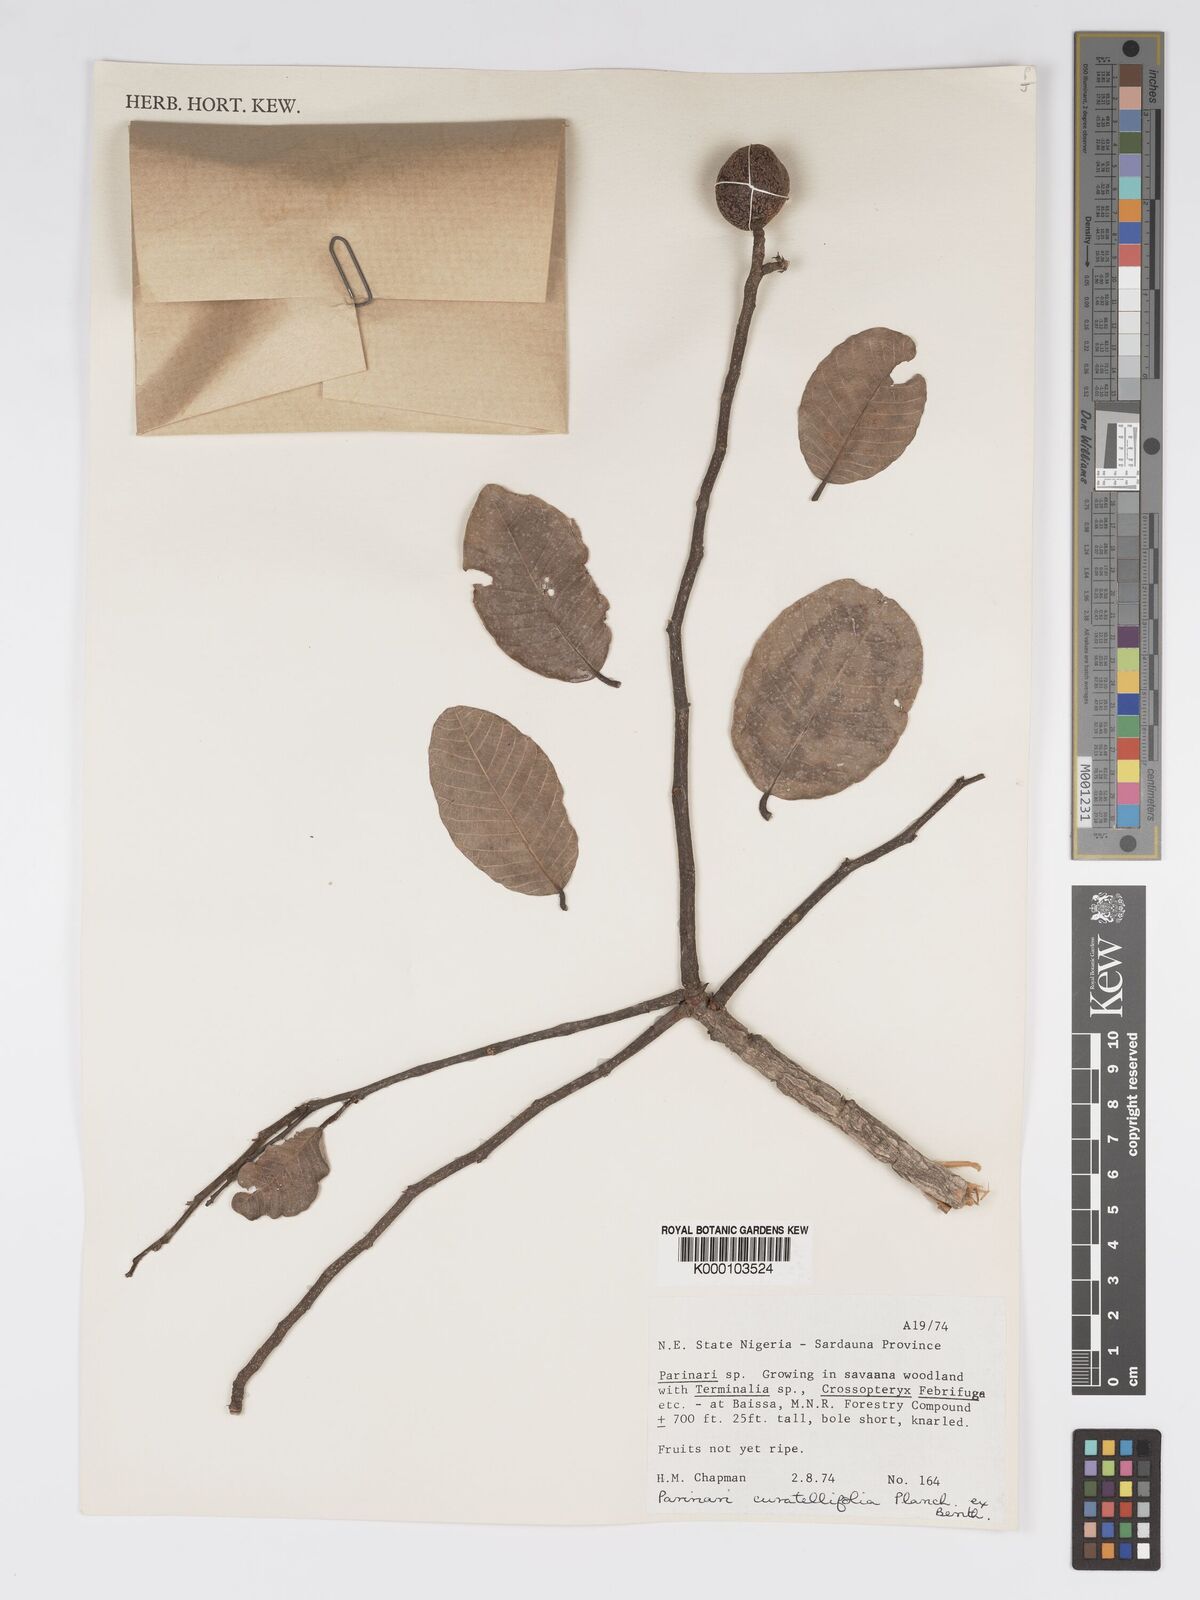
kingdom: Plantae
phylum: Tracheophyta
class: Magnoliopsida
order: Malpighiales
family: Chrysobalanaceae
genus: Parinari
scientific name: Parinari curatellifolia
